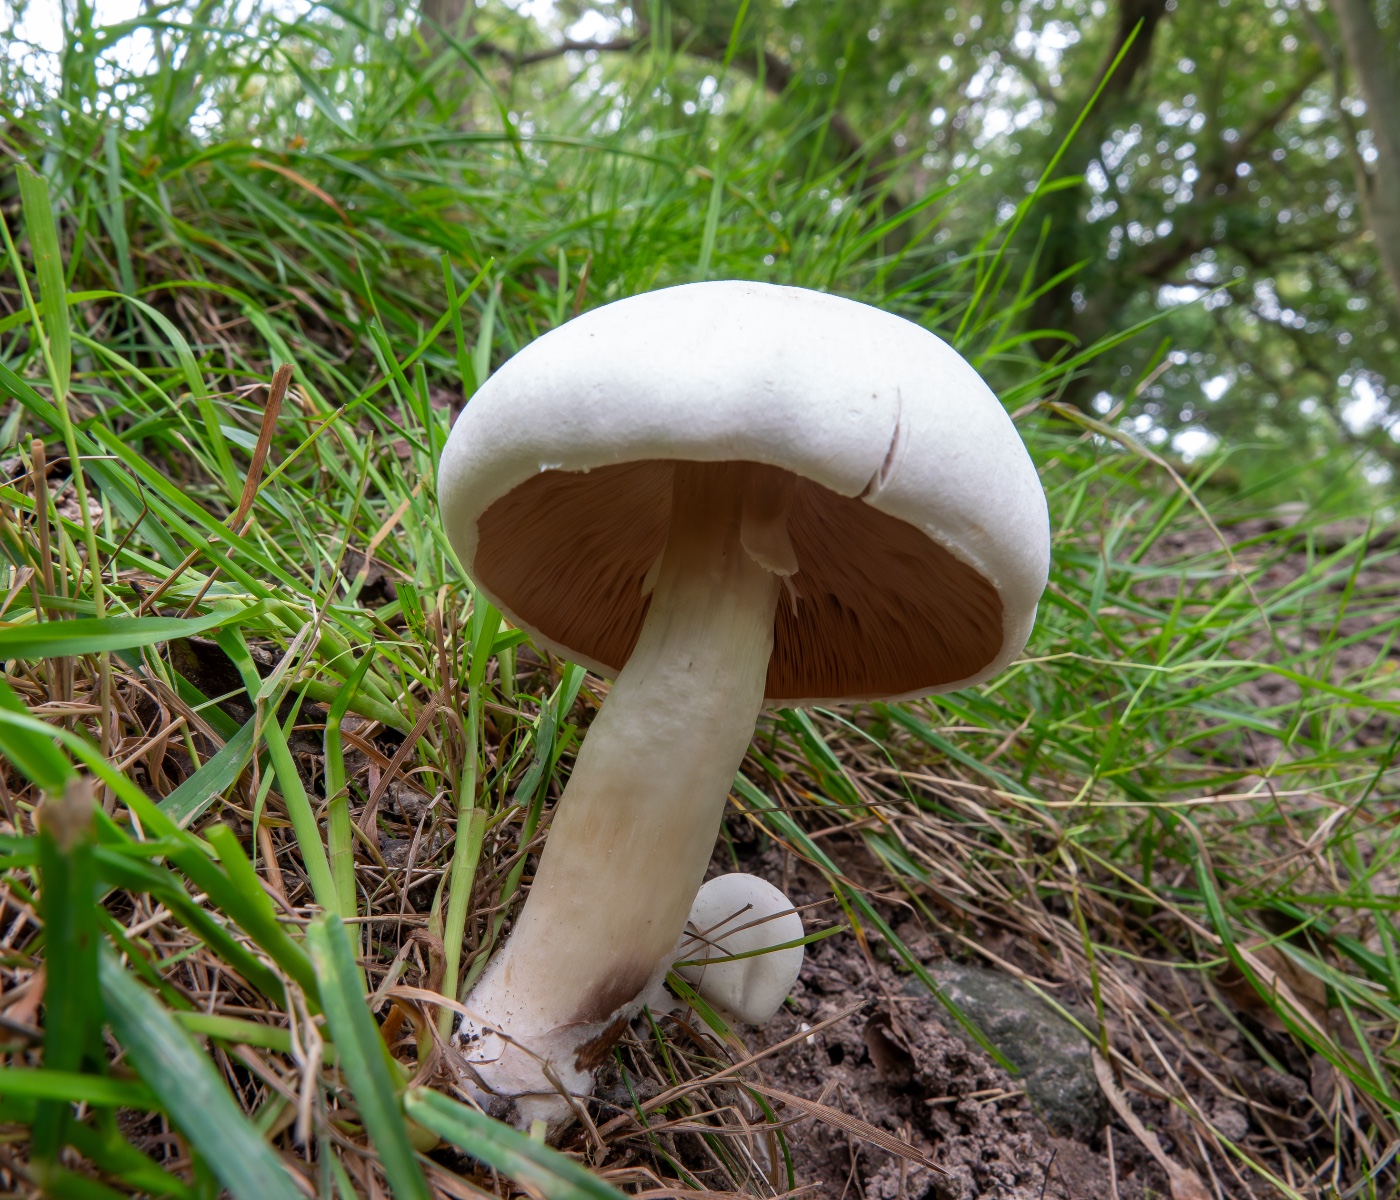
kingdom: Fungi
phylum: Basidiomycota
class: Agaricomycetes
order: Agaricales
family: Agaricaceae
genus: Agaricus
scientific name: Agaricus
